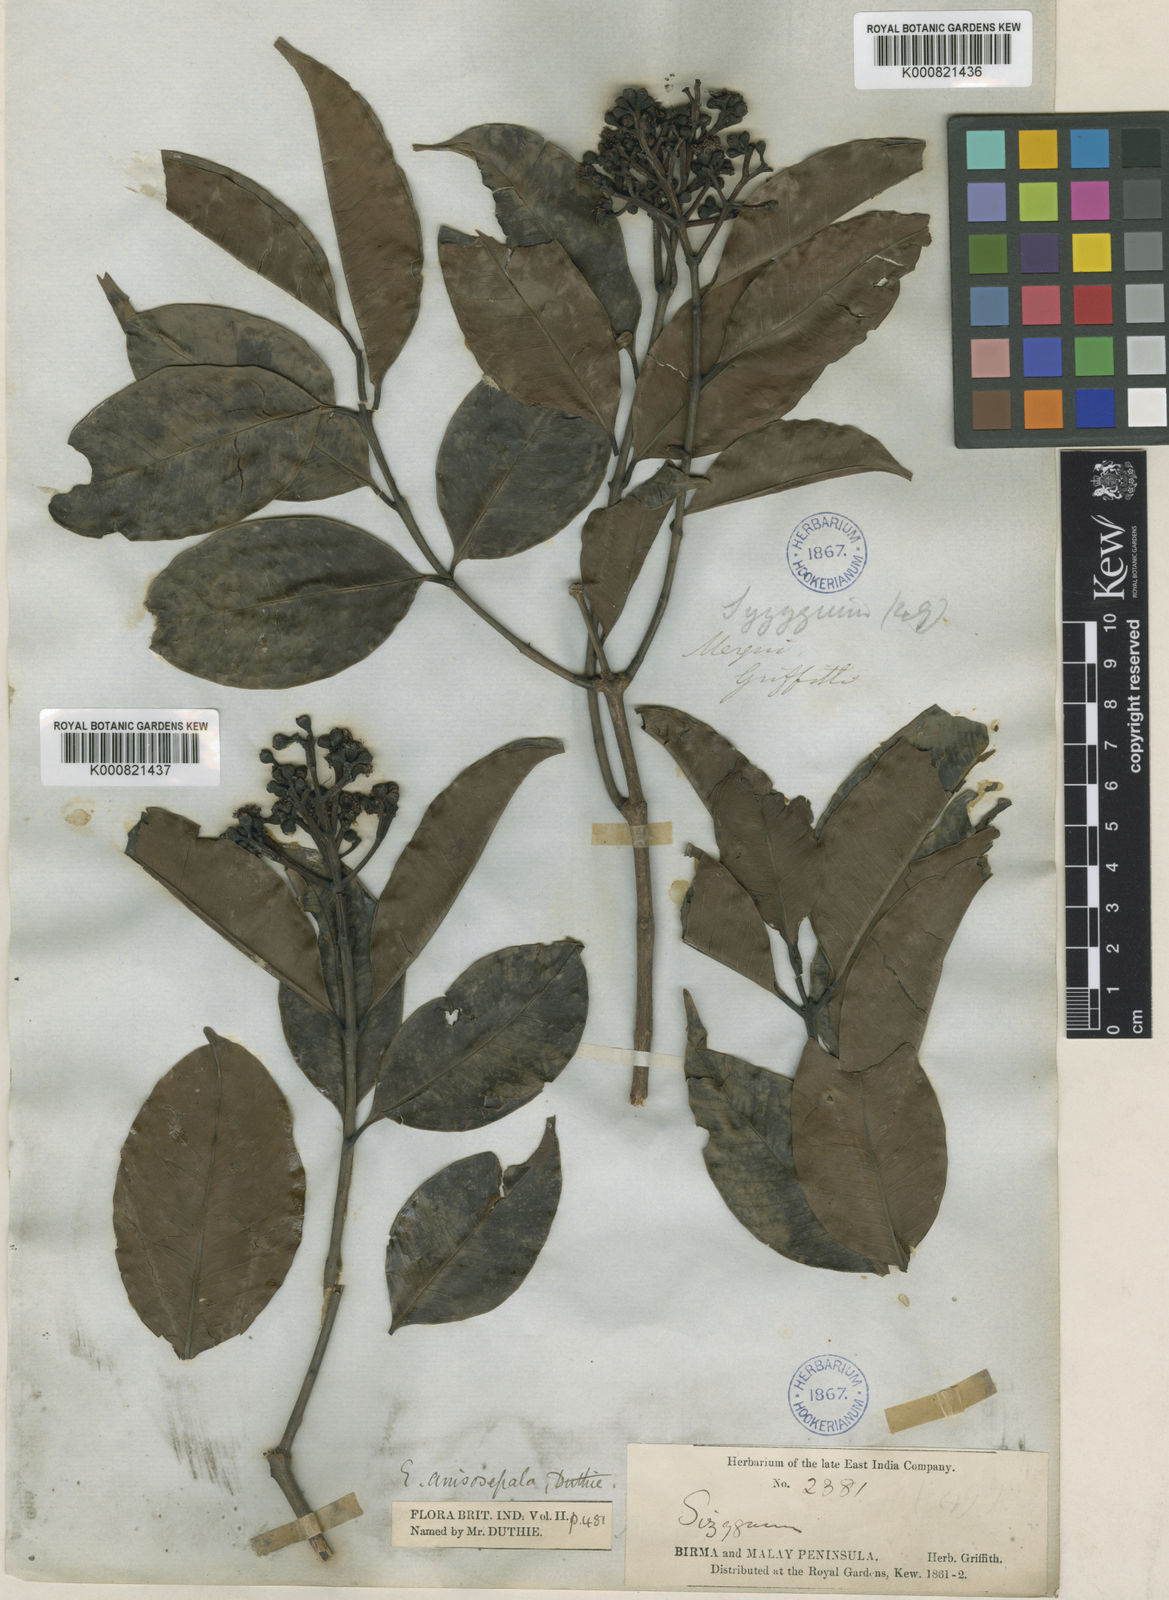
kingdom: Plantae
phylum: Tracheophyta
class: Magnoliopsida
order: Myrtales
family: Myrtaceae
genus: Syzygium
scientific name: Syzygium anisosepalum
